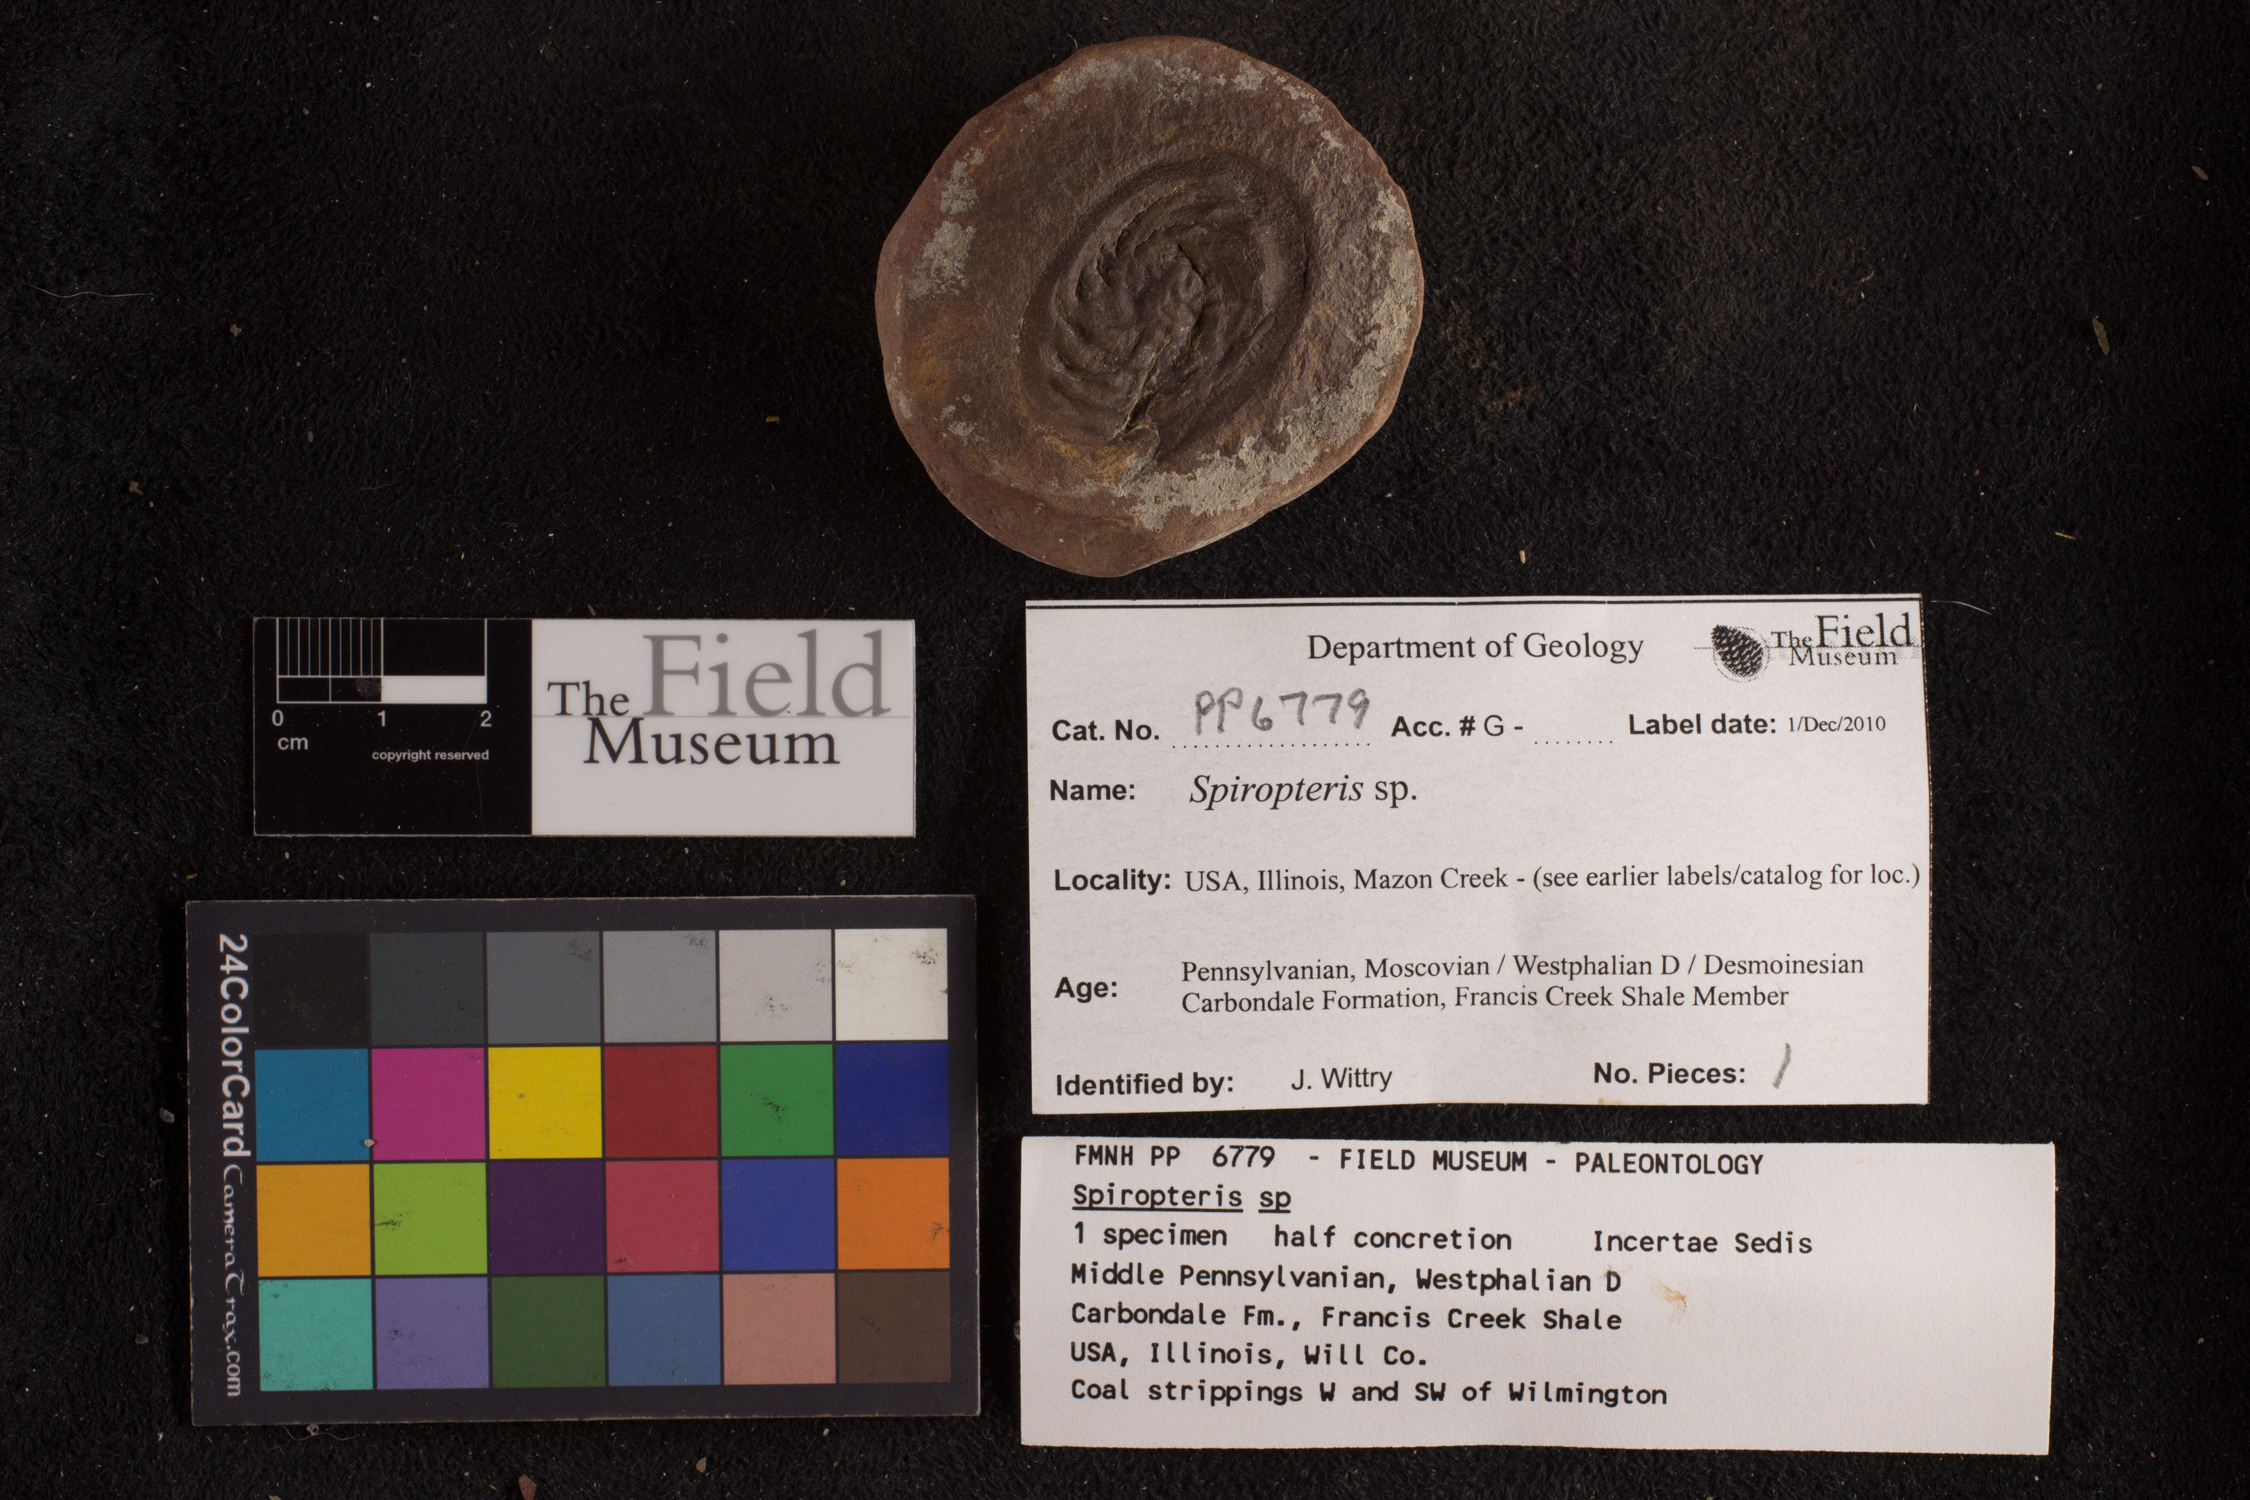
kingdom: Plantae
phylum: Tracheophyta
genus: Spiropteris
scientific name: Spiropteris
